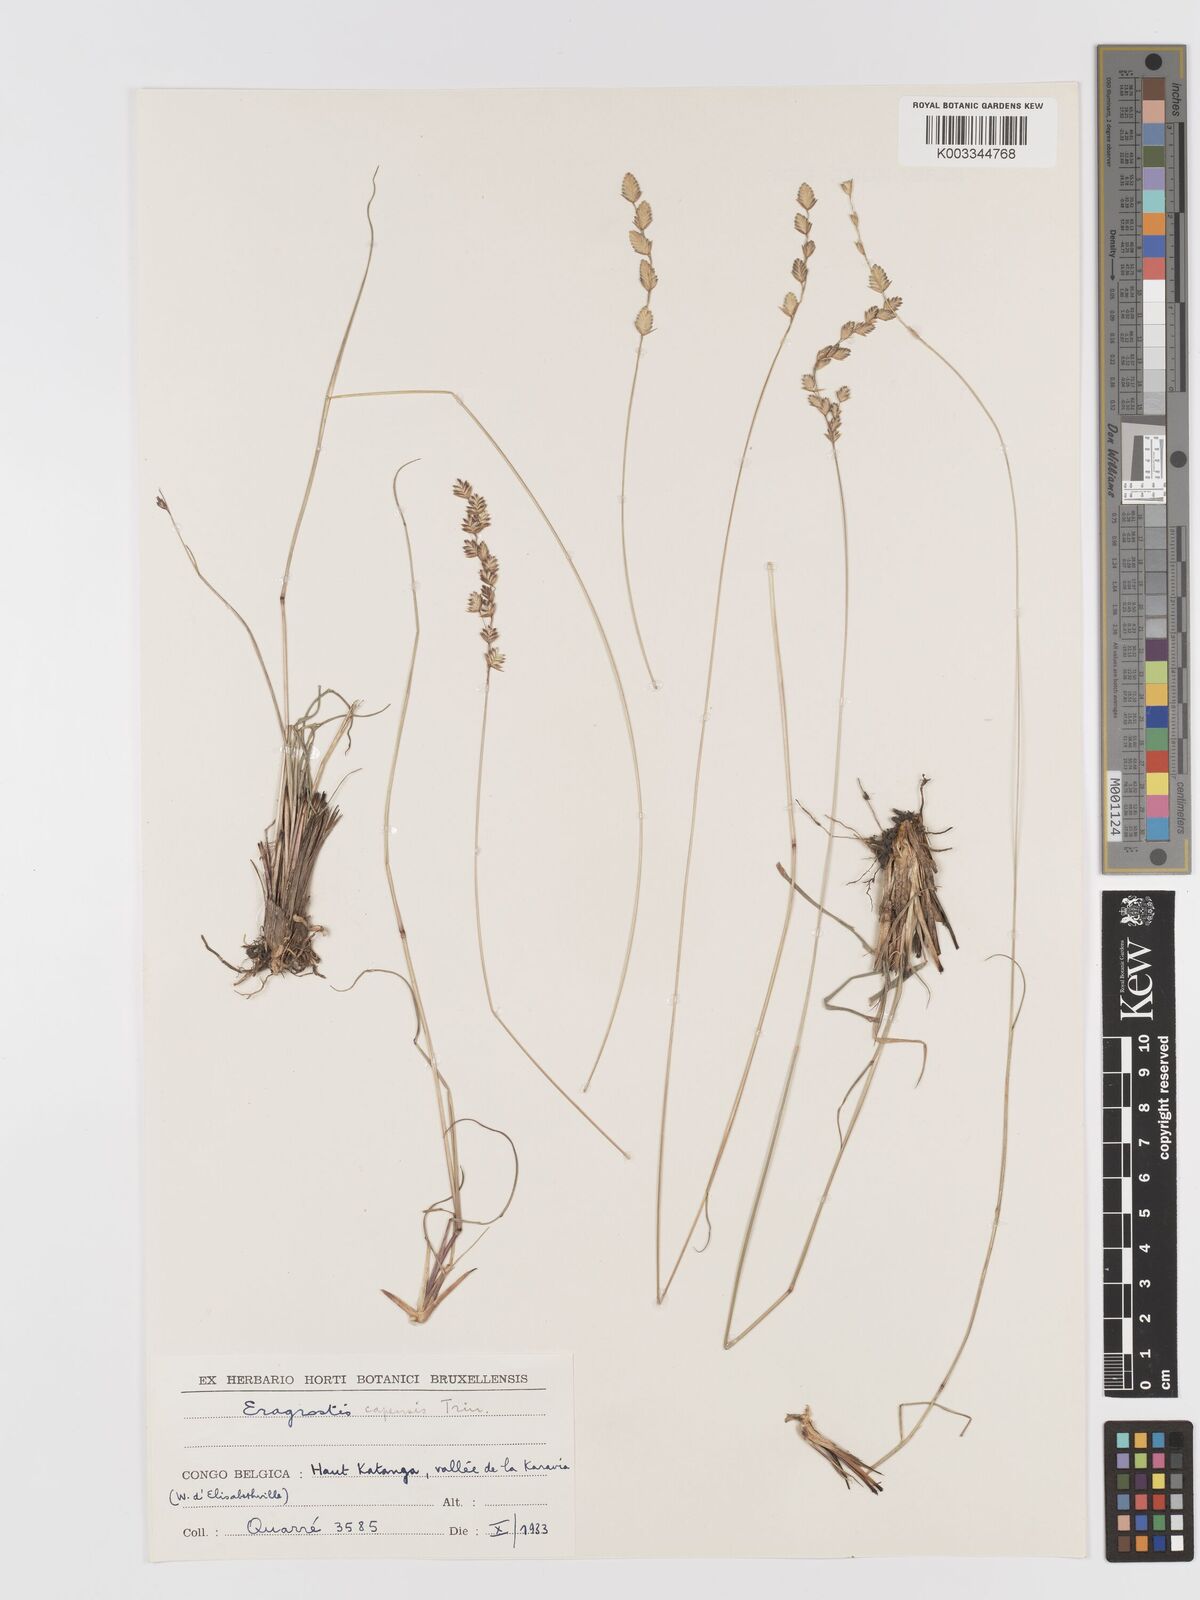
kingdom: Plantae
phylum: Tracheophyta
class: Liliopsida
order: Poales
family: Poaceae
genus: Eragrostis
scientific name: Eragrostis capensis
